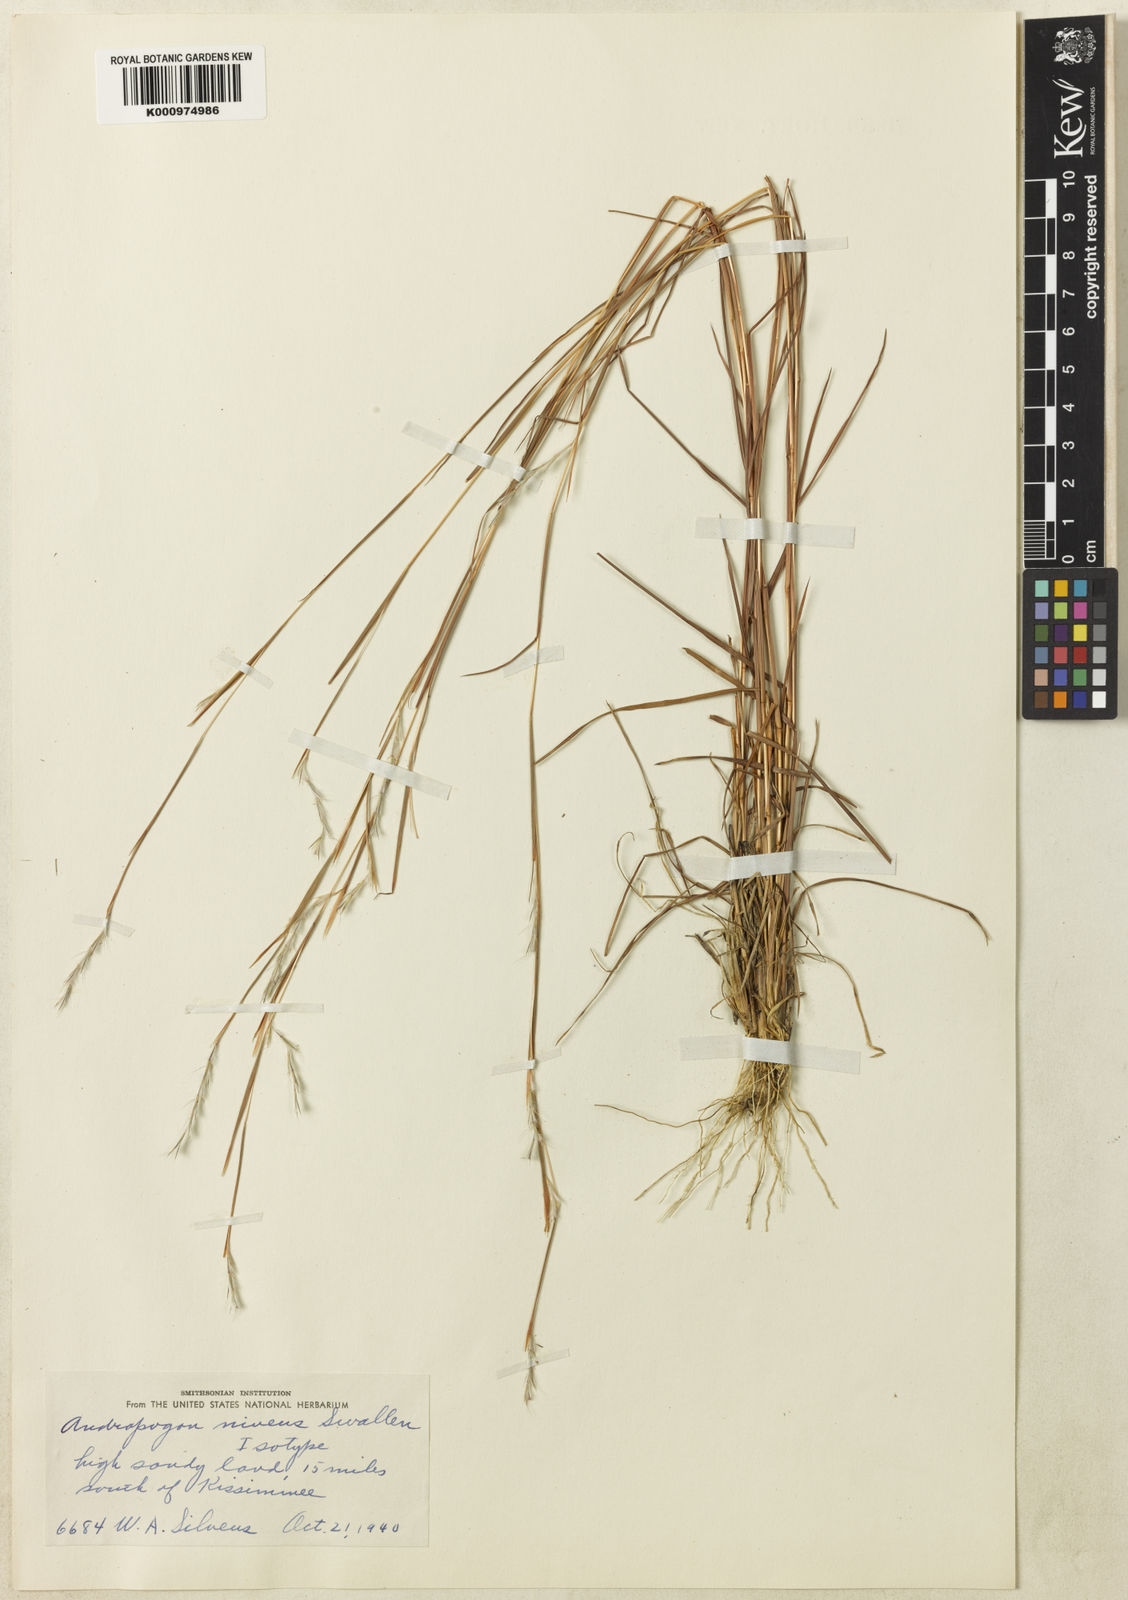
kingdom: Plantae
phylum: Tracheophyta
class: Liliopsida
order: Poales
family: Poaceae
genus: Schizachyrium
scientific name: Schizachyrium niveum
